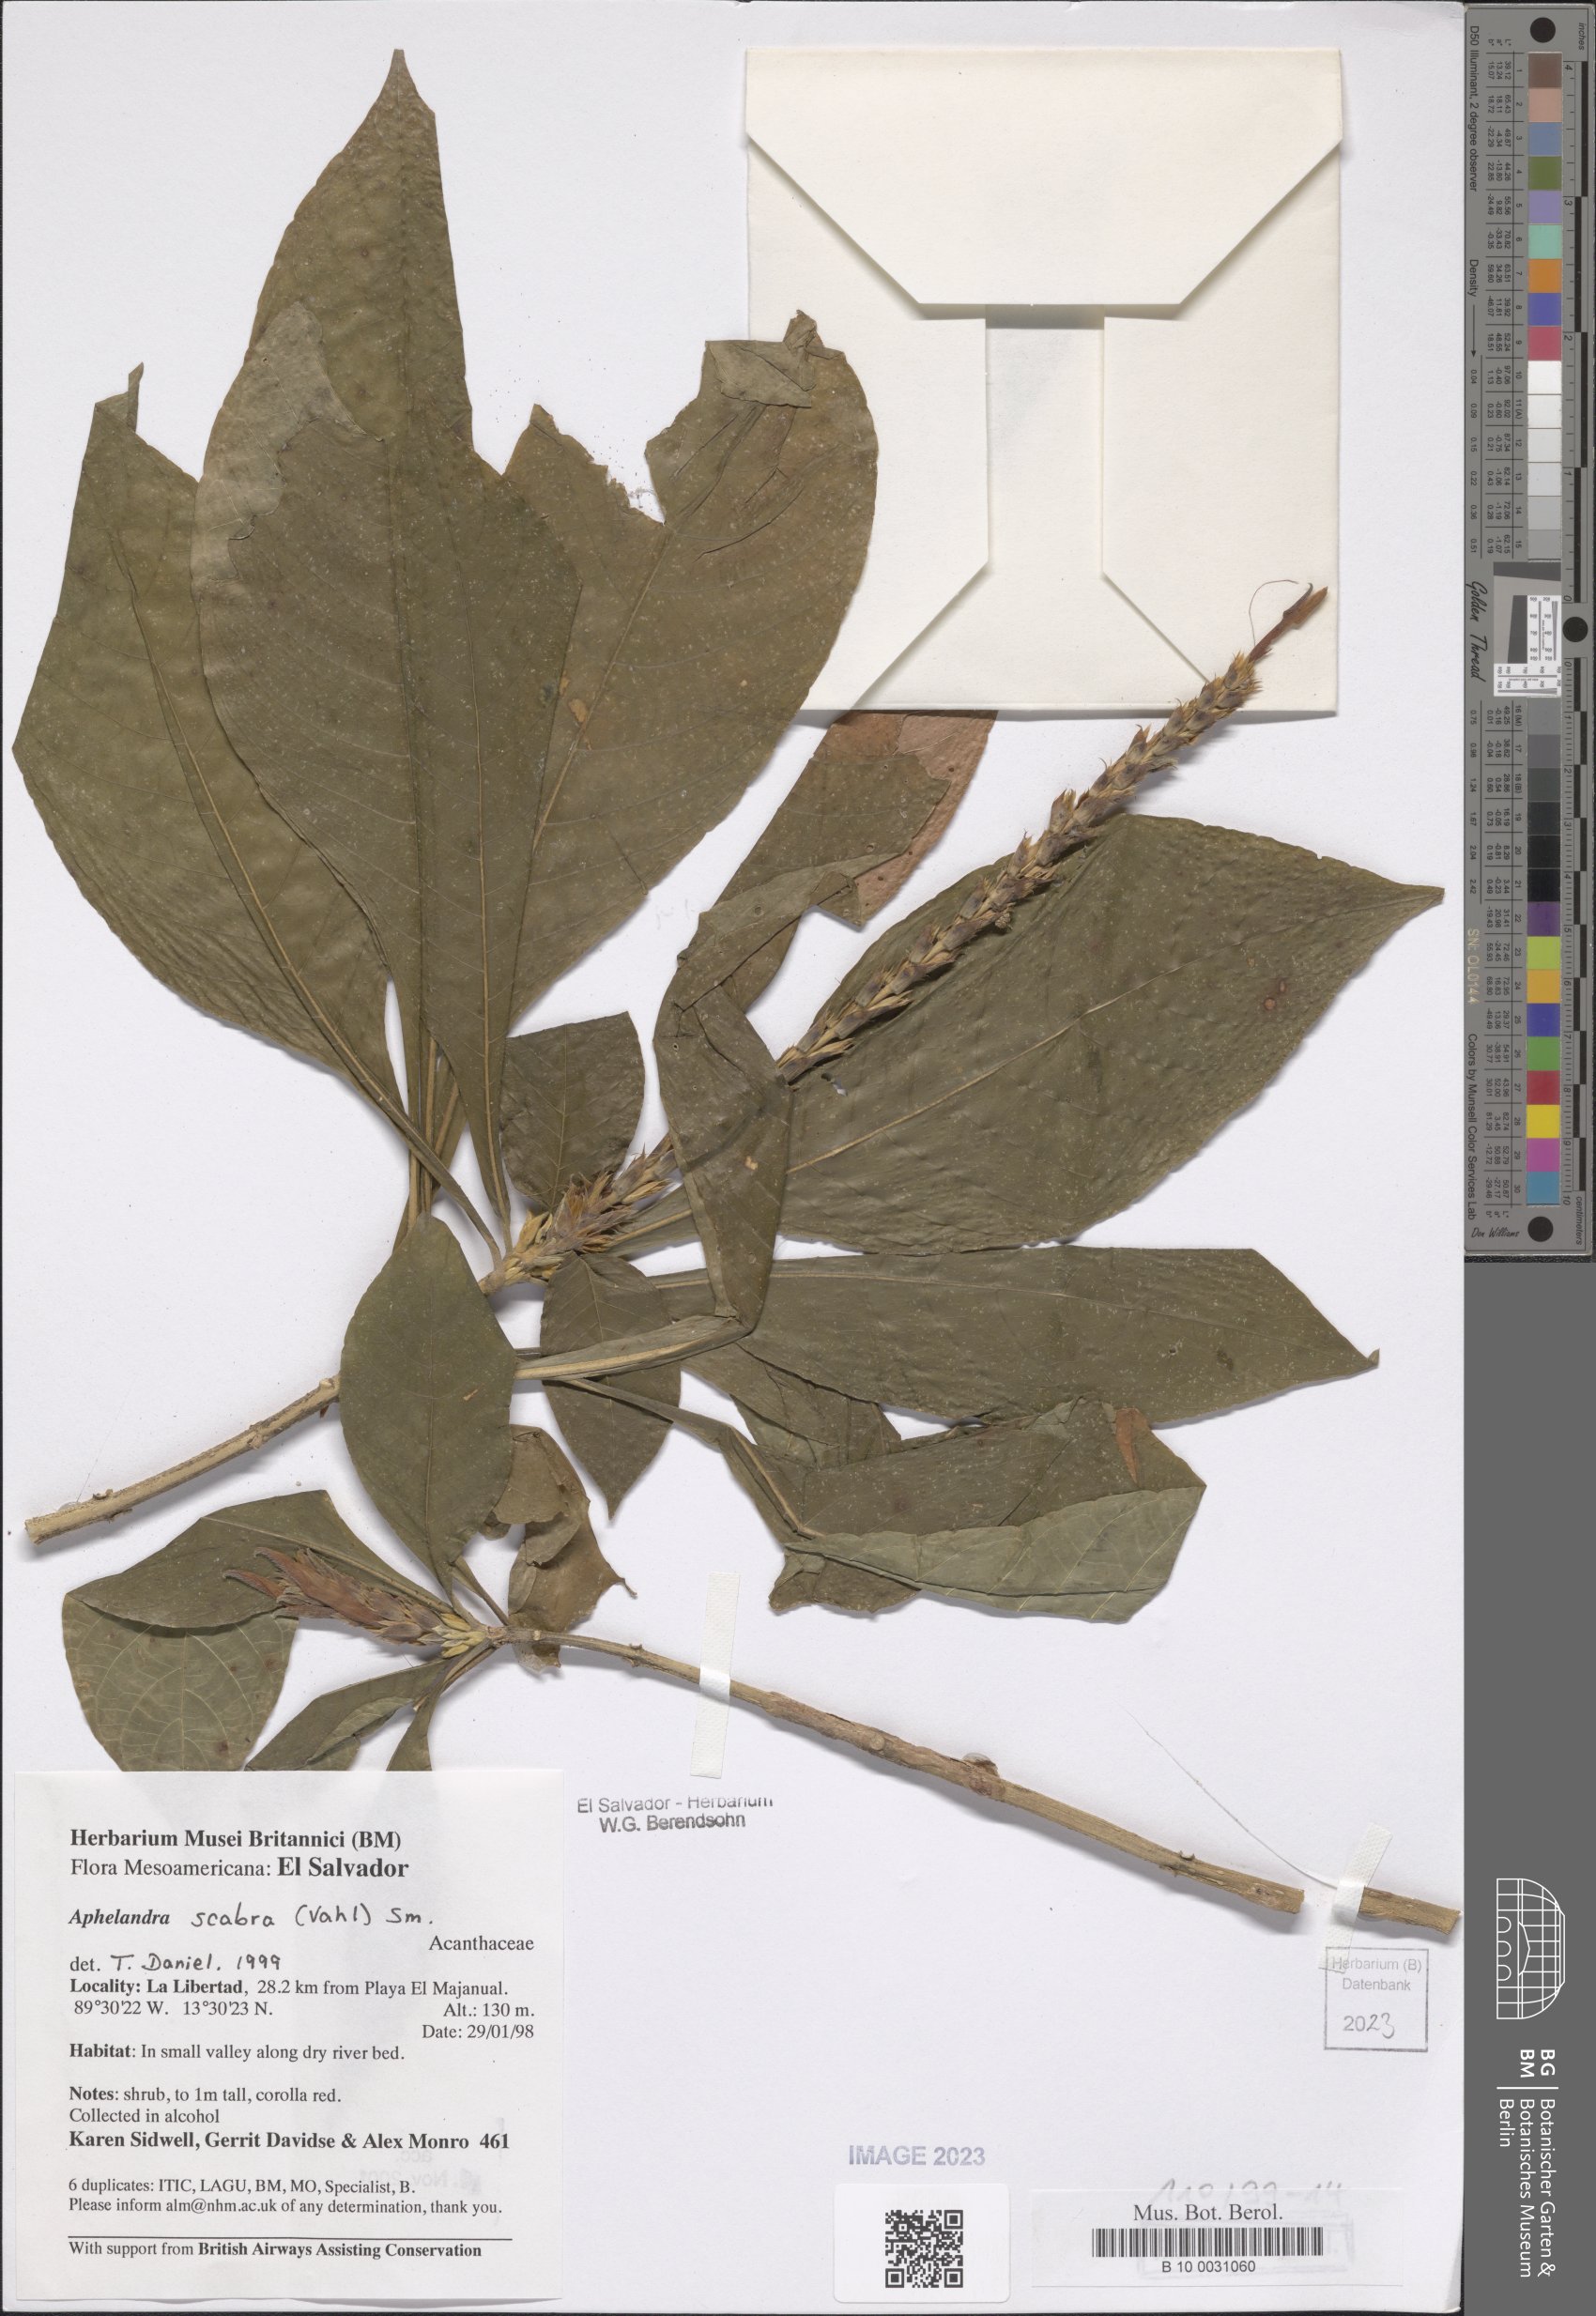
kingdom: Plantae
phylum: Tracheophyta
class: Magnoliopsida
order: Lamiales
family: Acanthaceae
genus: Aphelandra
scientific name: Aphelandra scabra
